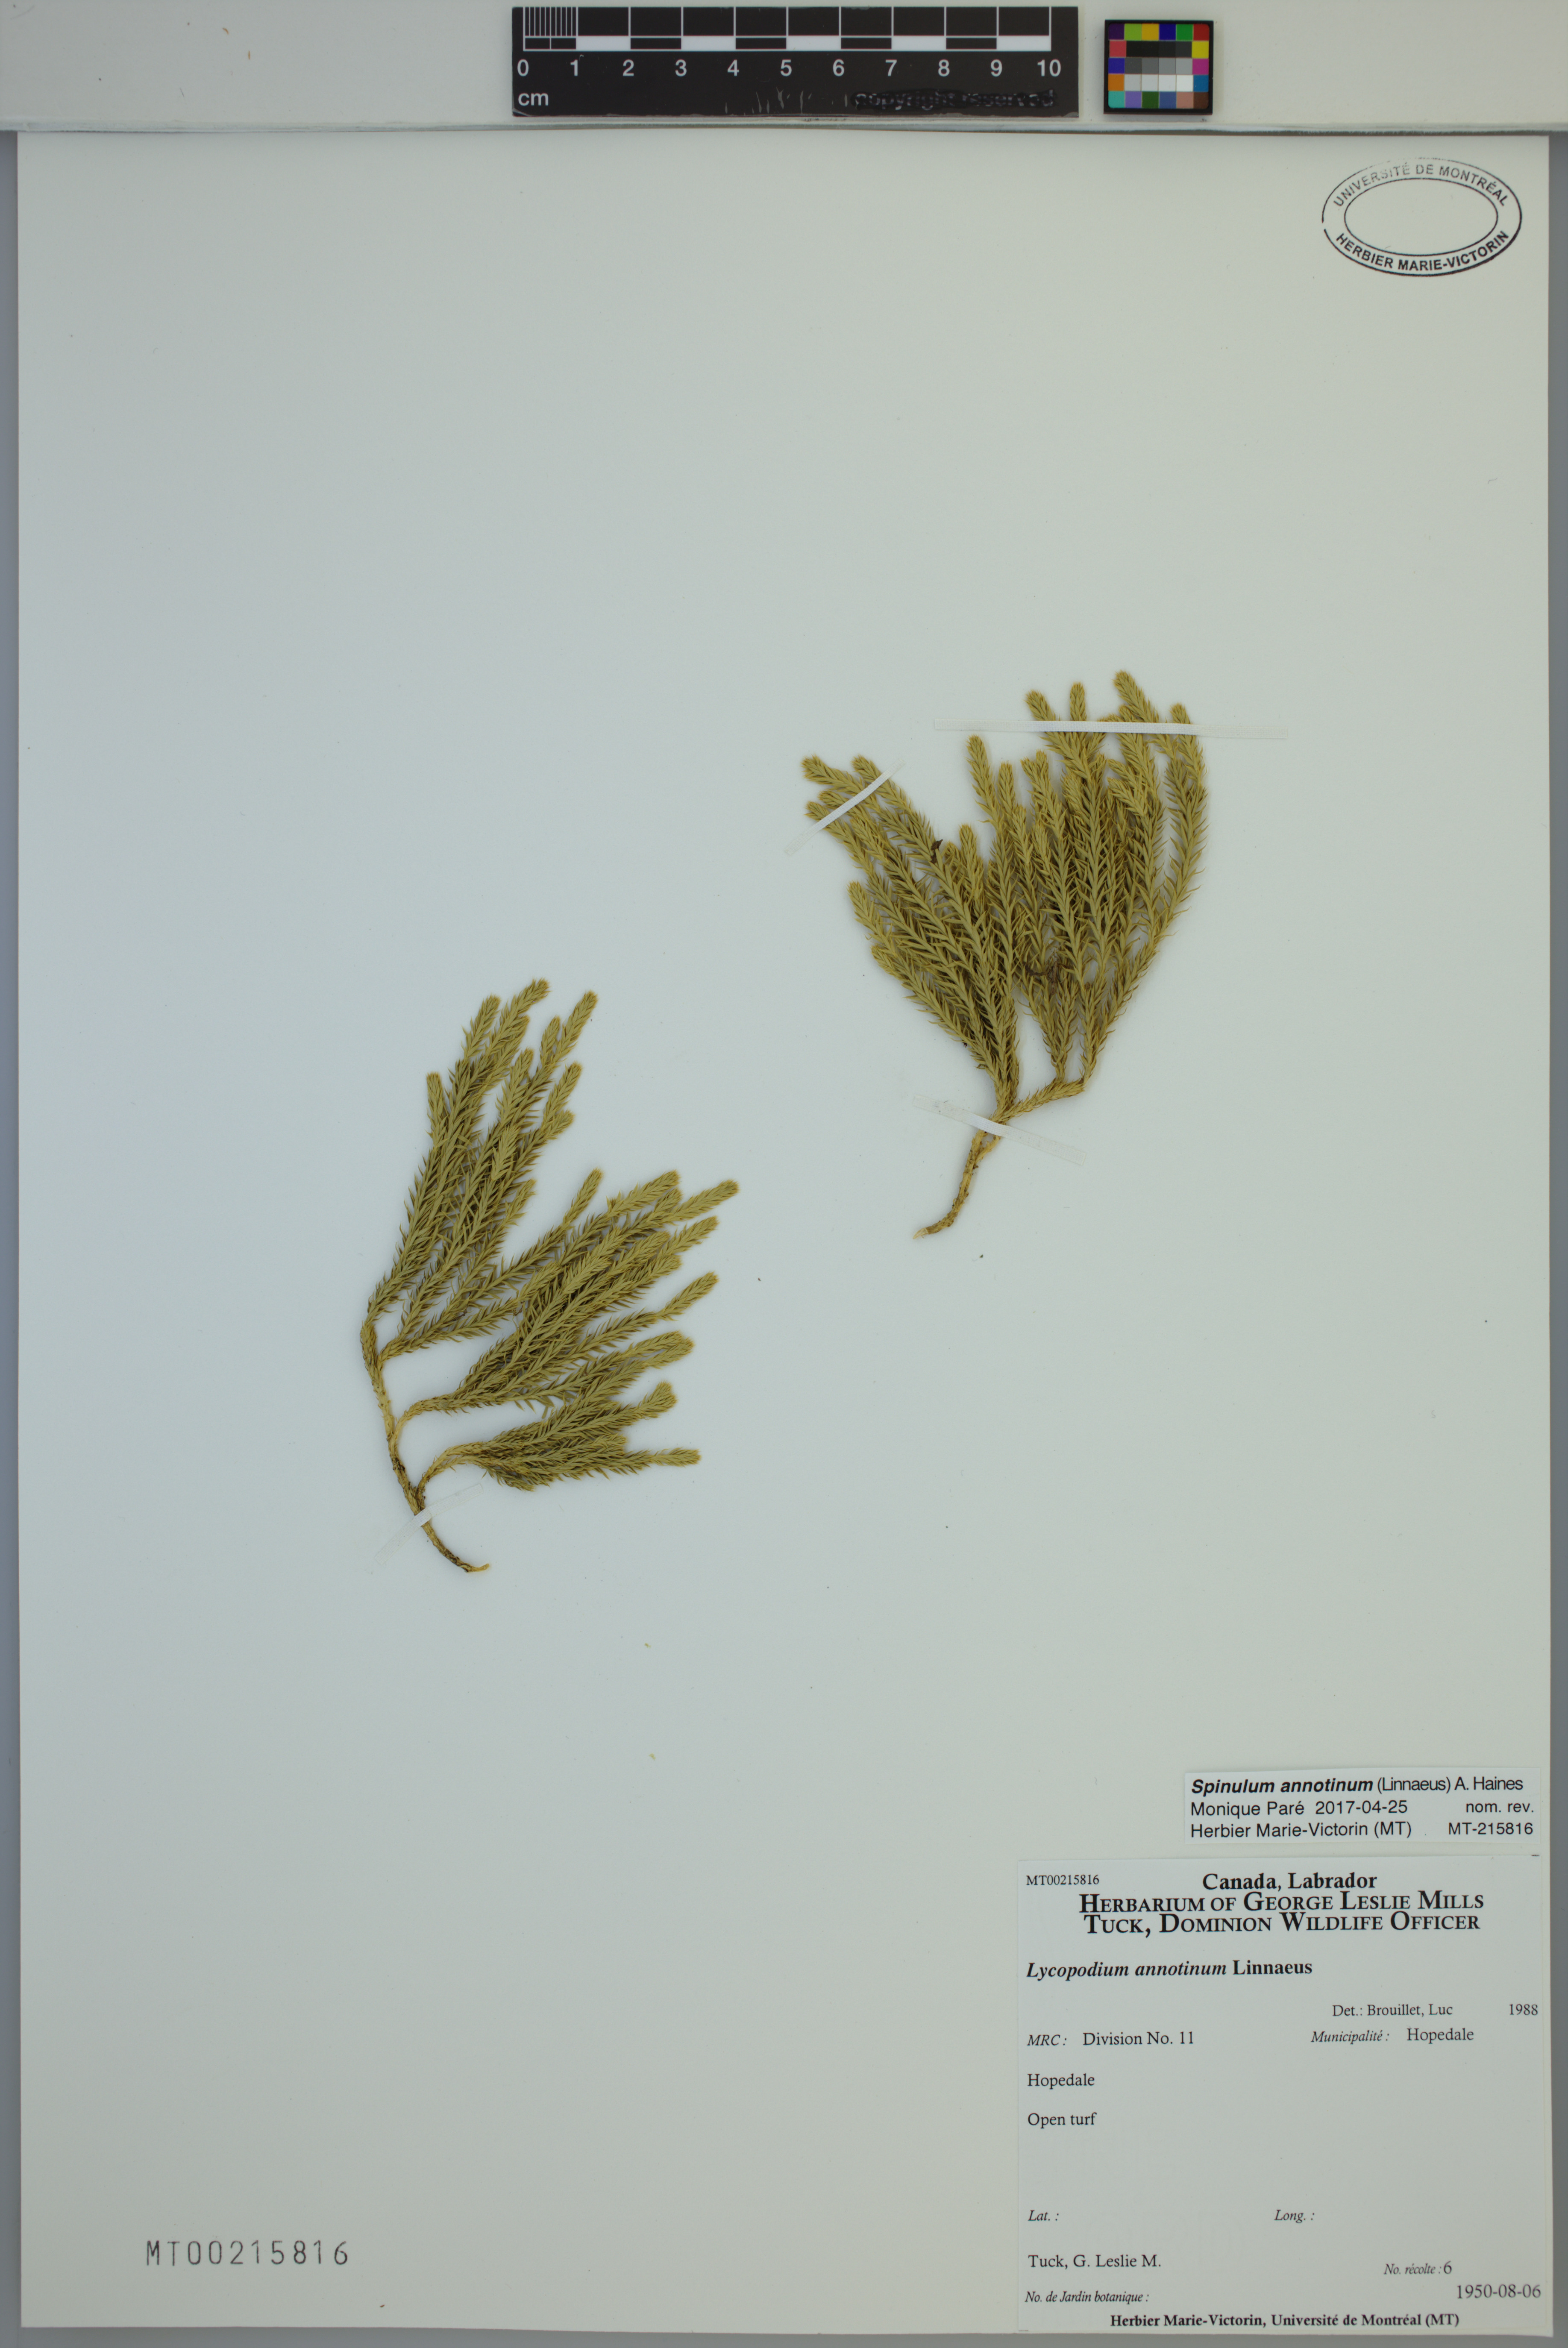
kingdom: Plantae
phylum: Tracheophyta
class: Lycopodiopsida
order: Lycopodiales
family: Lycopodiaceae
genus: Spinulum
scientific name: Spinulum annotinum
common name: Interrupted club-moss
